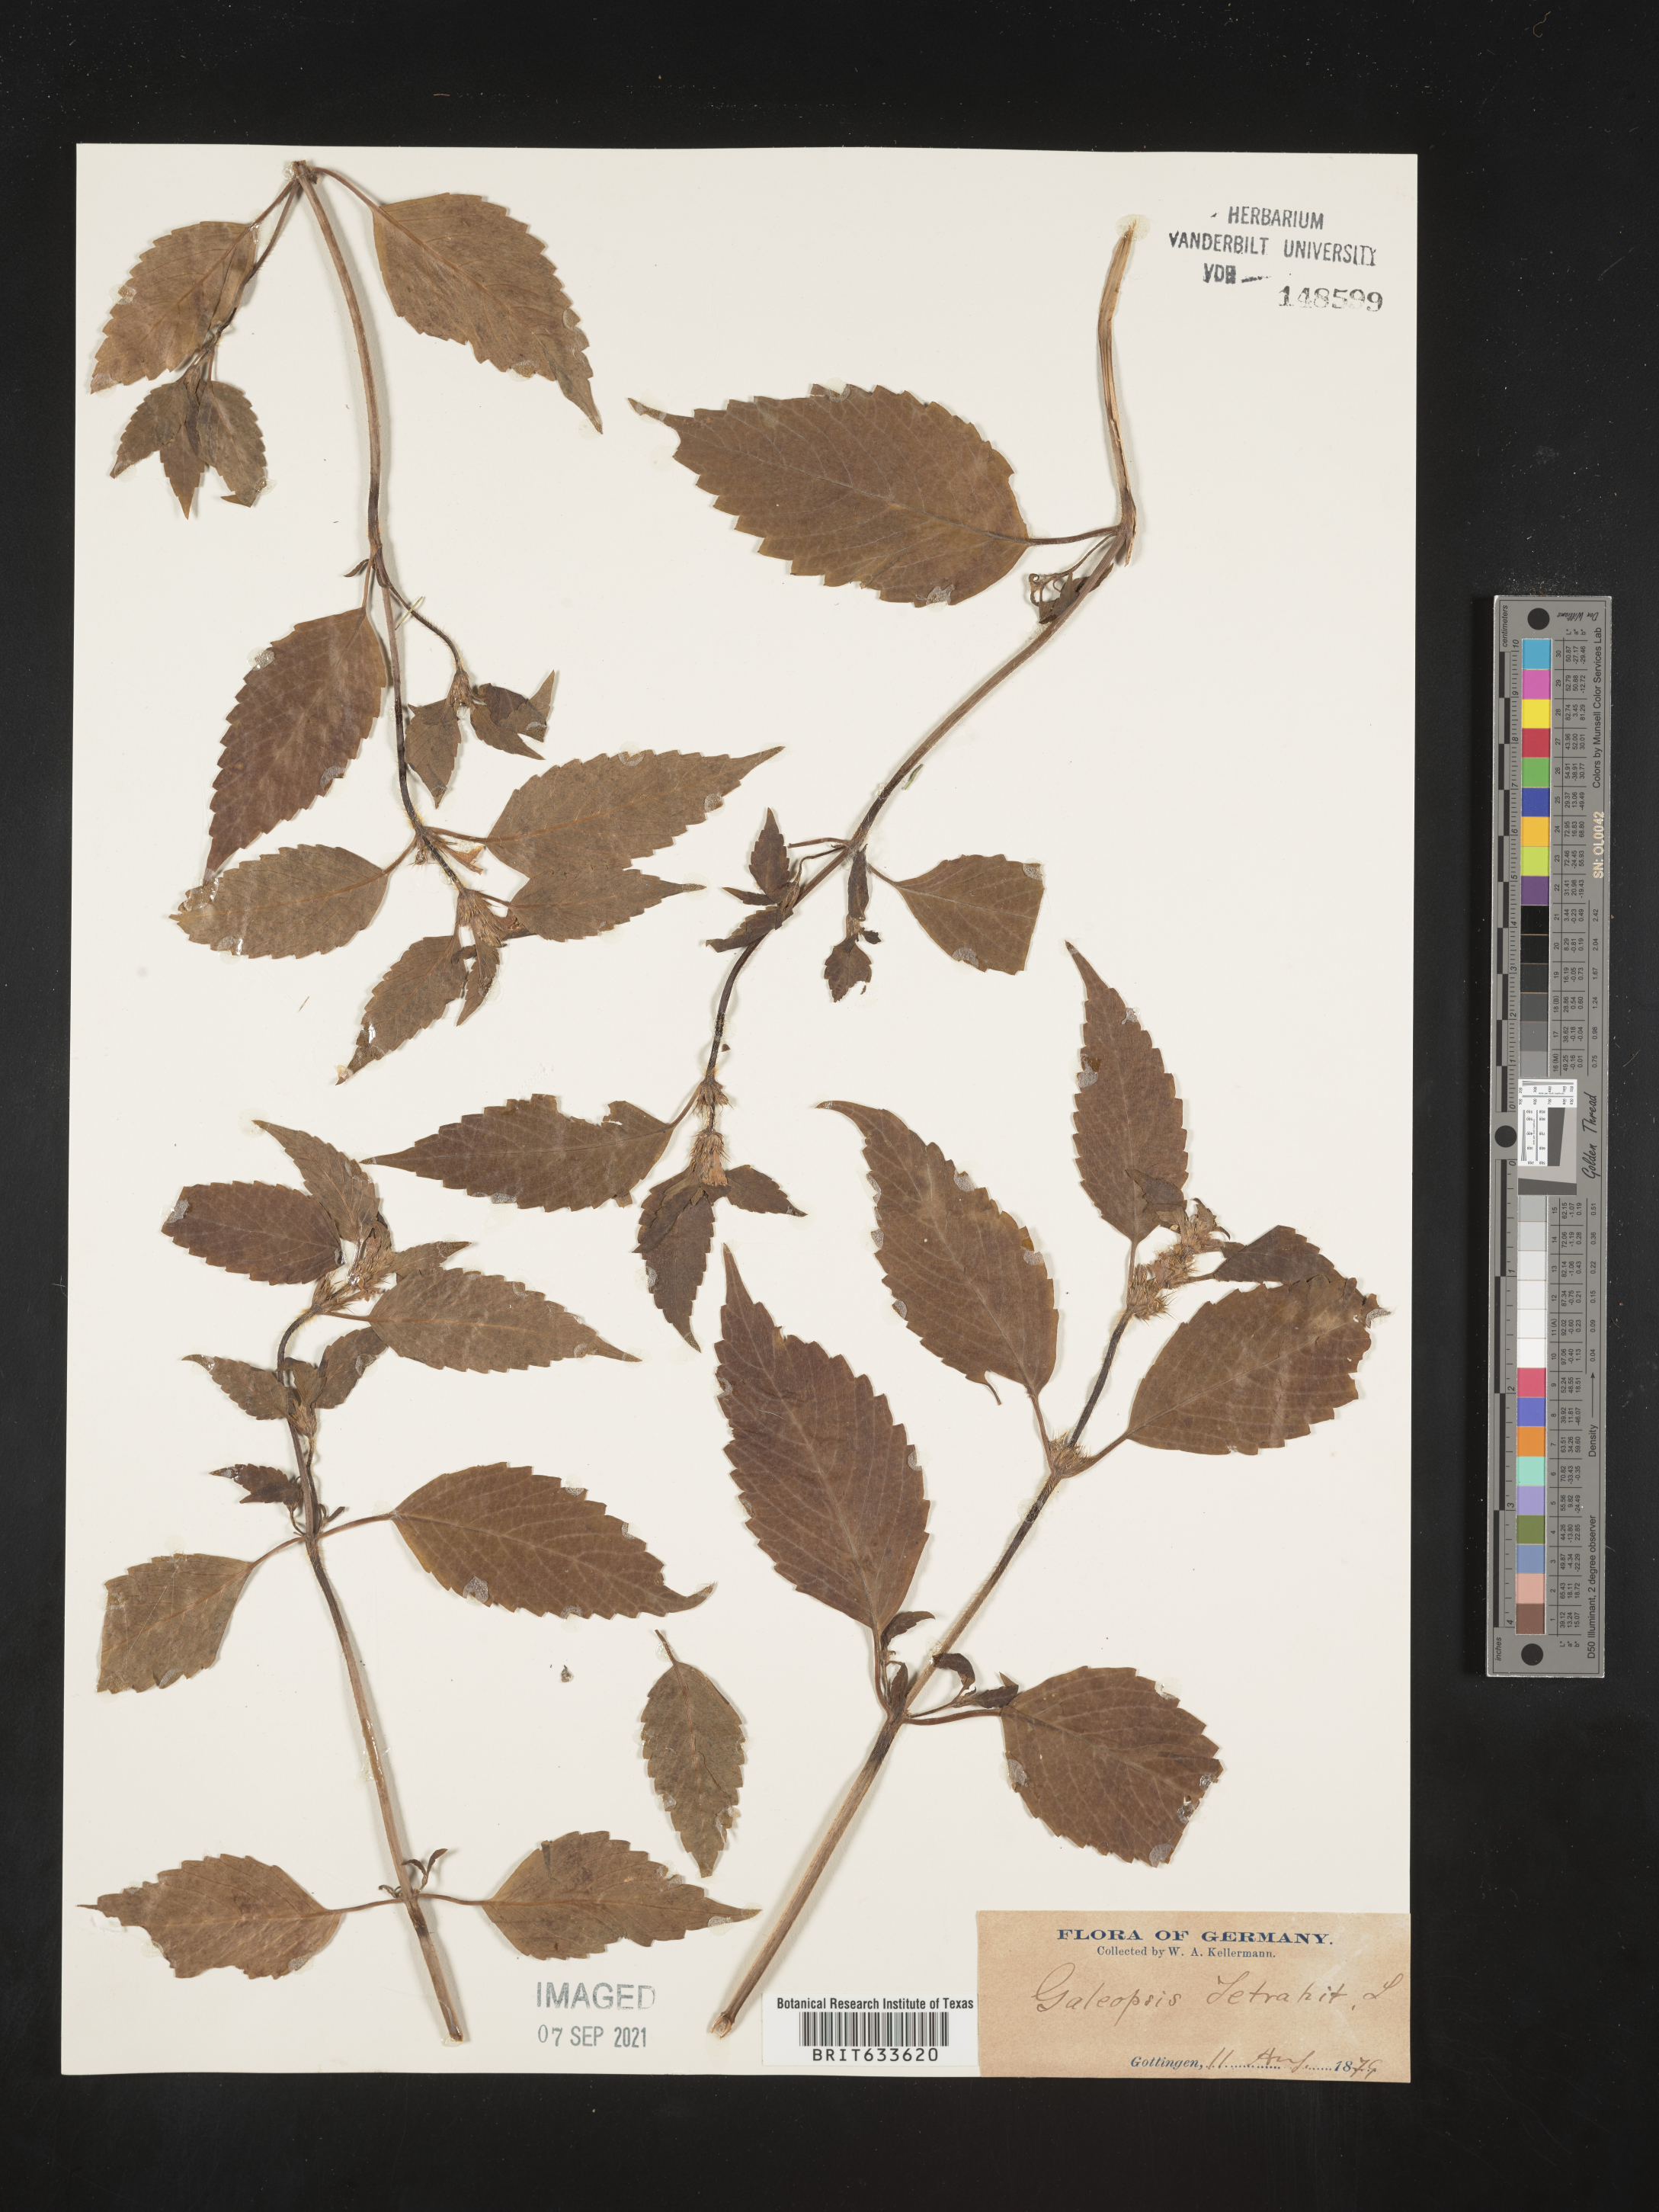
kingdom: Plantae
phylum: Tracheophyta
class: Magnoliopsida
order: Lamiales
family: Lamiaceae
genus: Galeopsis
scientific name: Galeopsis
